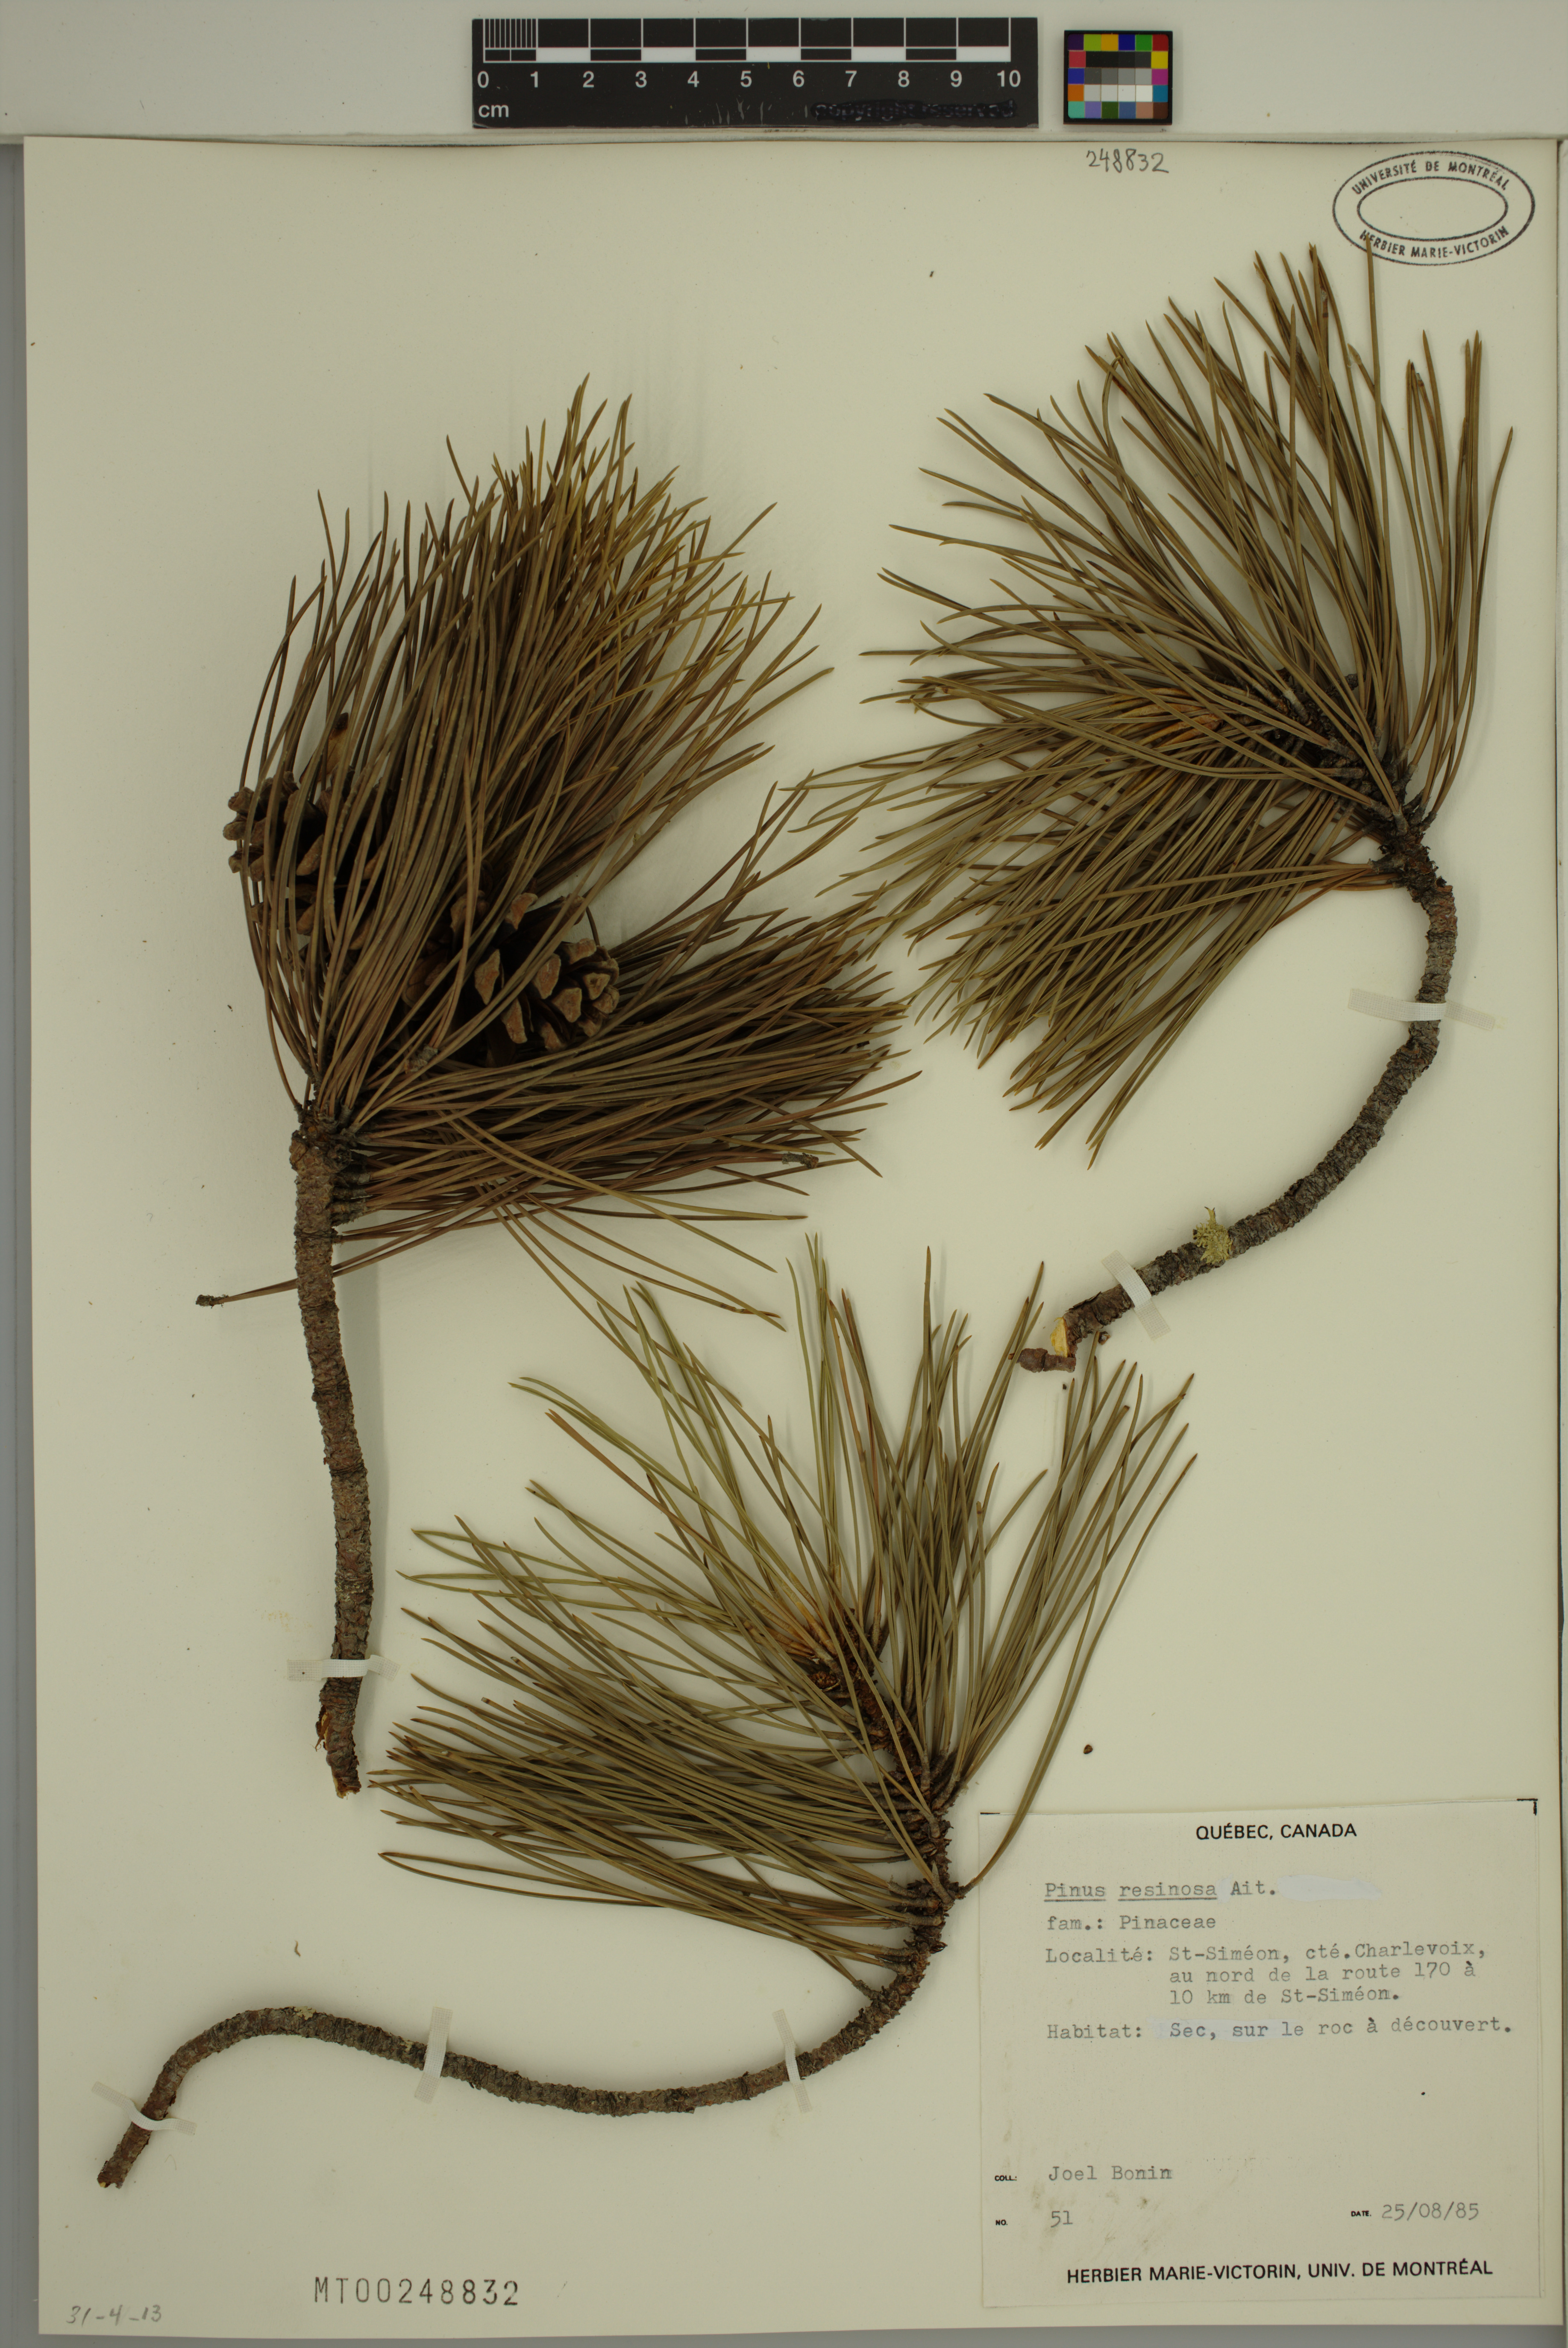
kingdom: Plantae
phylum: Tracheophyta
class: Pinopsida
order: Pinales
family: Pinaceae
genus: Pinus
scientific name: Pinus resinosa
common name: Norway pine
